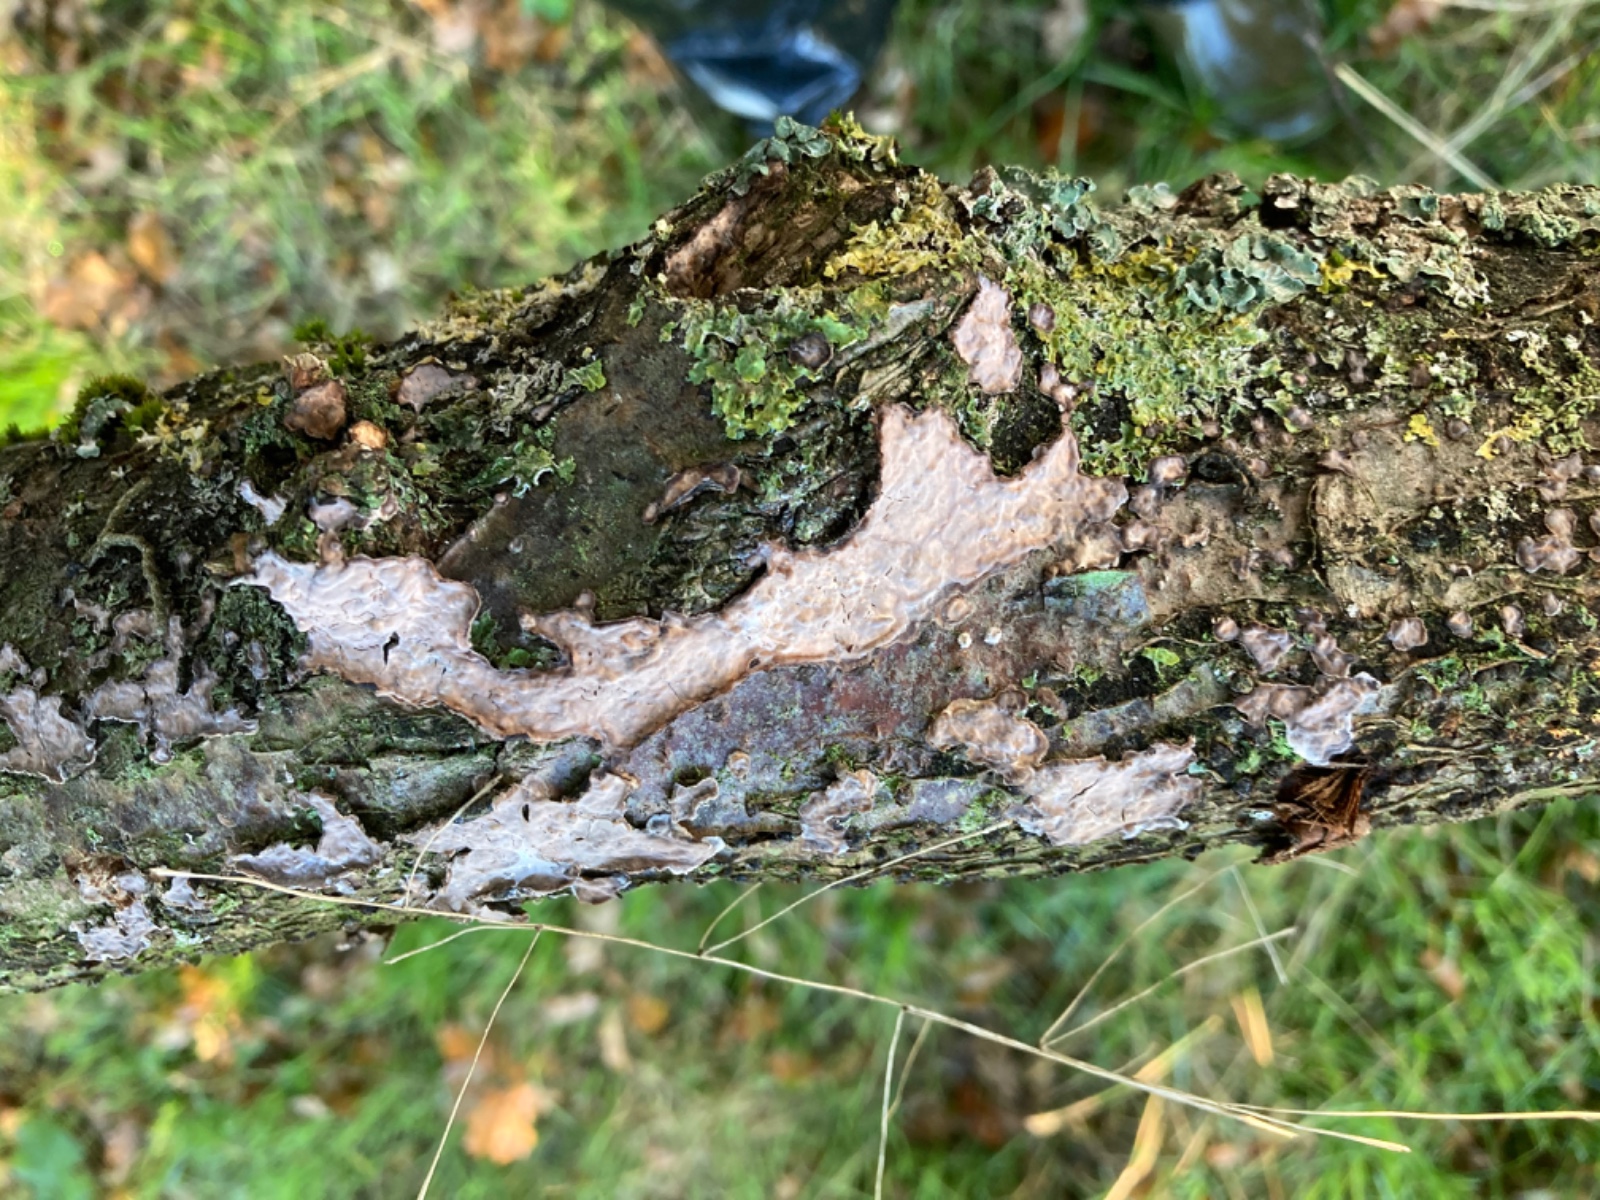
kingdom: Fungi
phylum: Basidiomycota
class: Agaricomycetes
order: Russulales
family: Peniophoraceae
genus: Peniophora
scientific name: Peniophora quercina
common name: ege-voksskind
